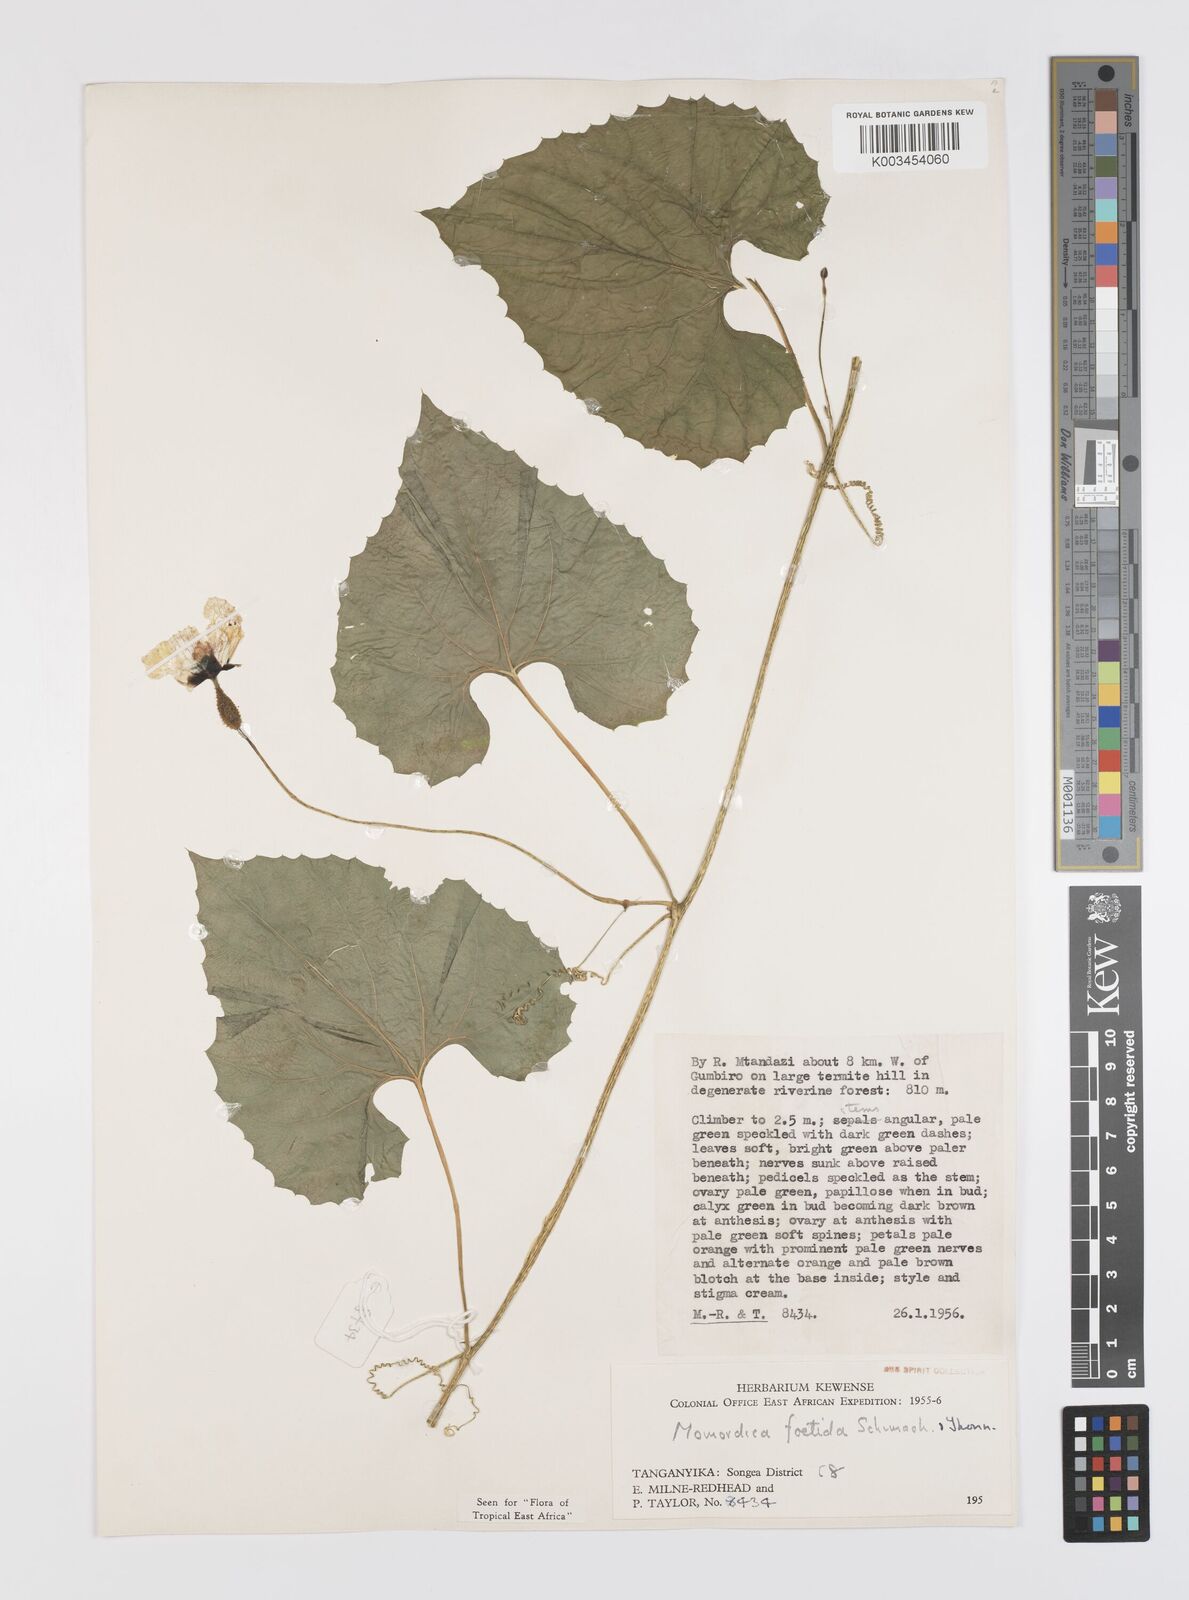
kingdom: Plantae
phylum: Tracheophyta
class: Magnoliopsida
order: Cucurbitales
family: Cucurbitaceae
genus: Momordica
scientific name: Momordica foetida
